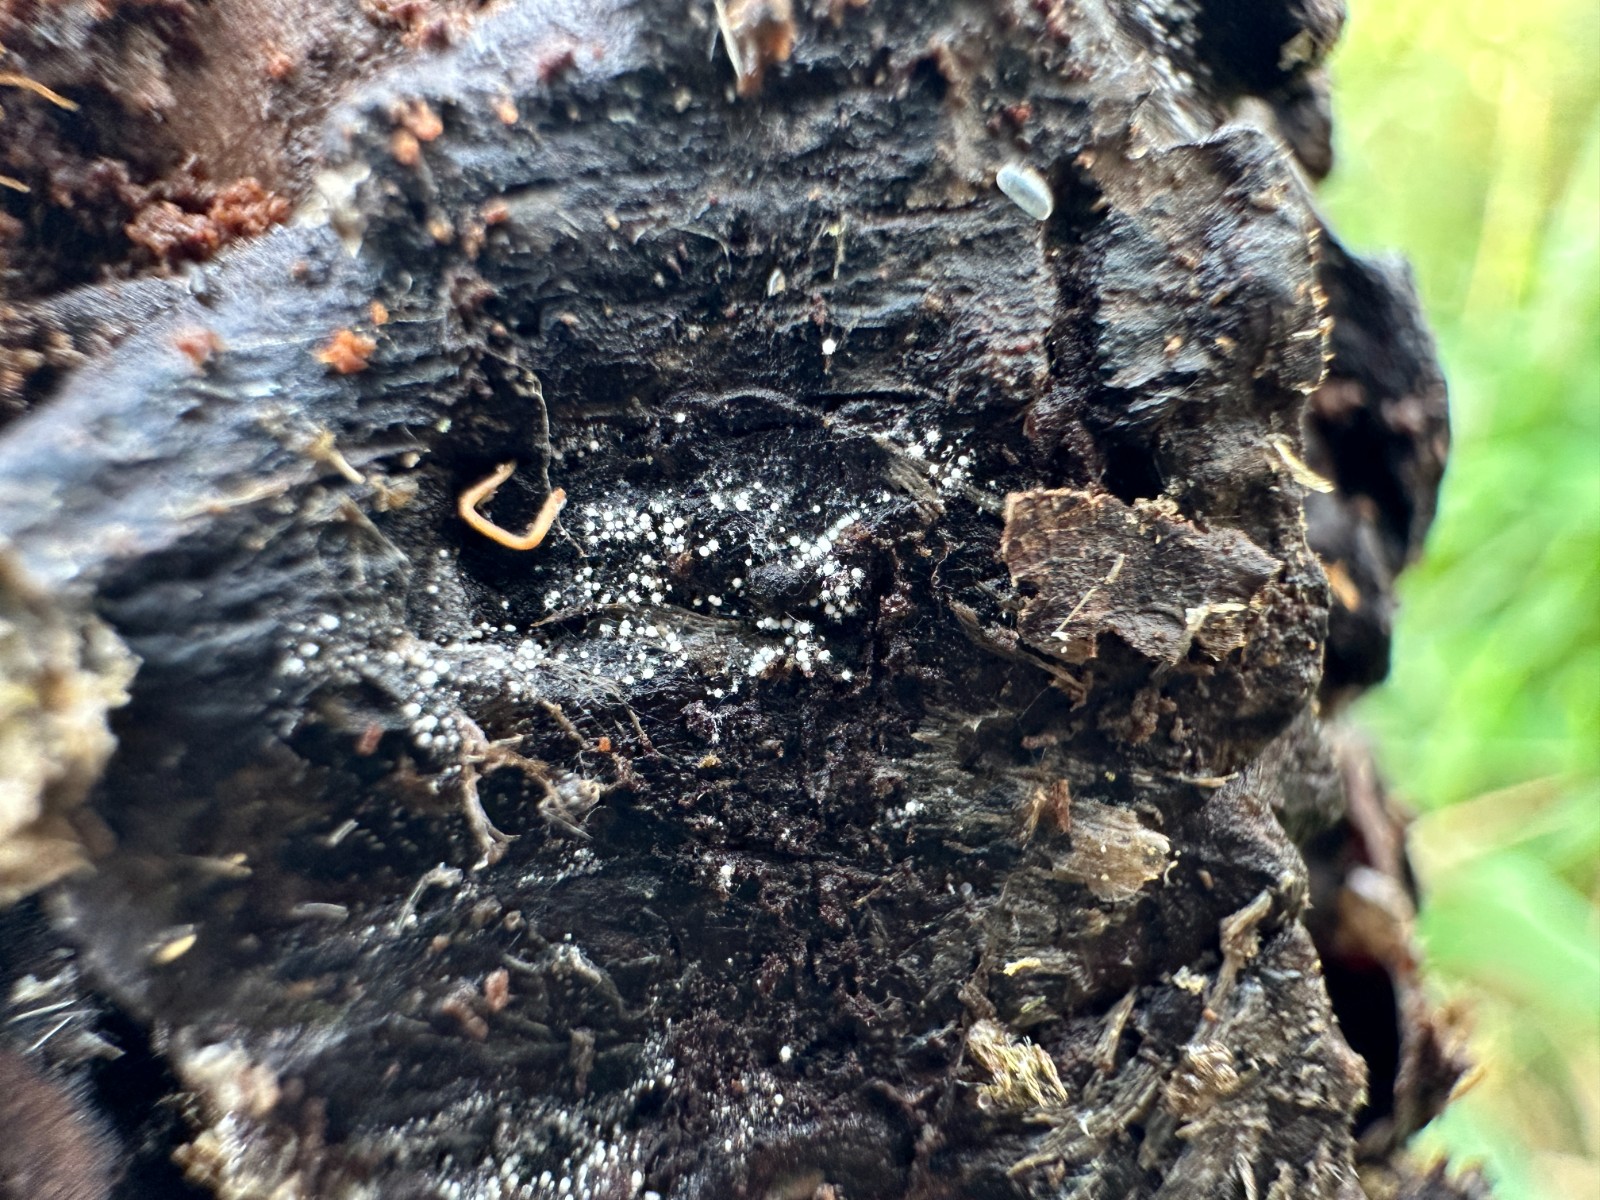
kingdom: Fungi
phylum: Basidiomycota
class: Agaricomycetes
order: Trechisporales
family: Hydnodontaceae
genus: Subulicystidium
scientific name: Subulicystidium longisporum
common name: almindelig pigtrådshinde
